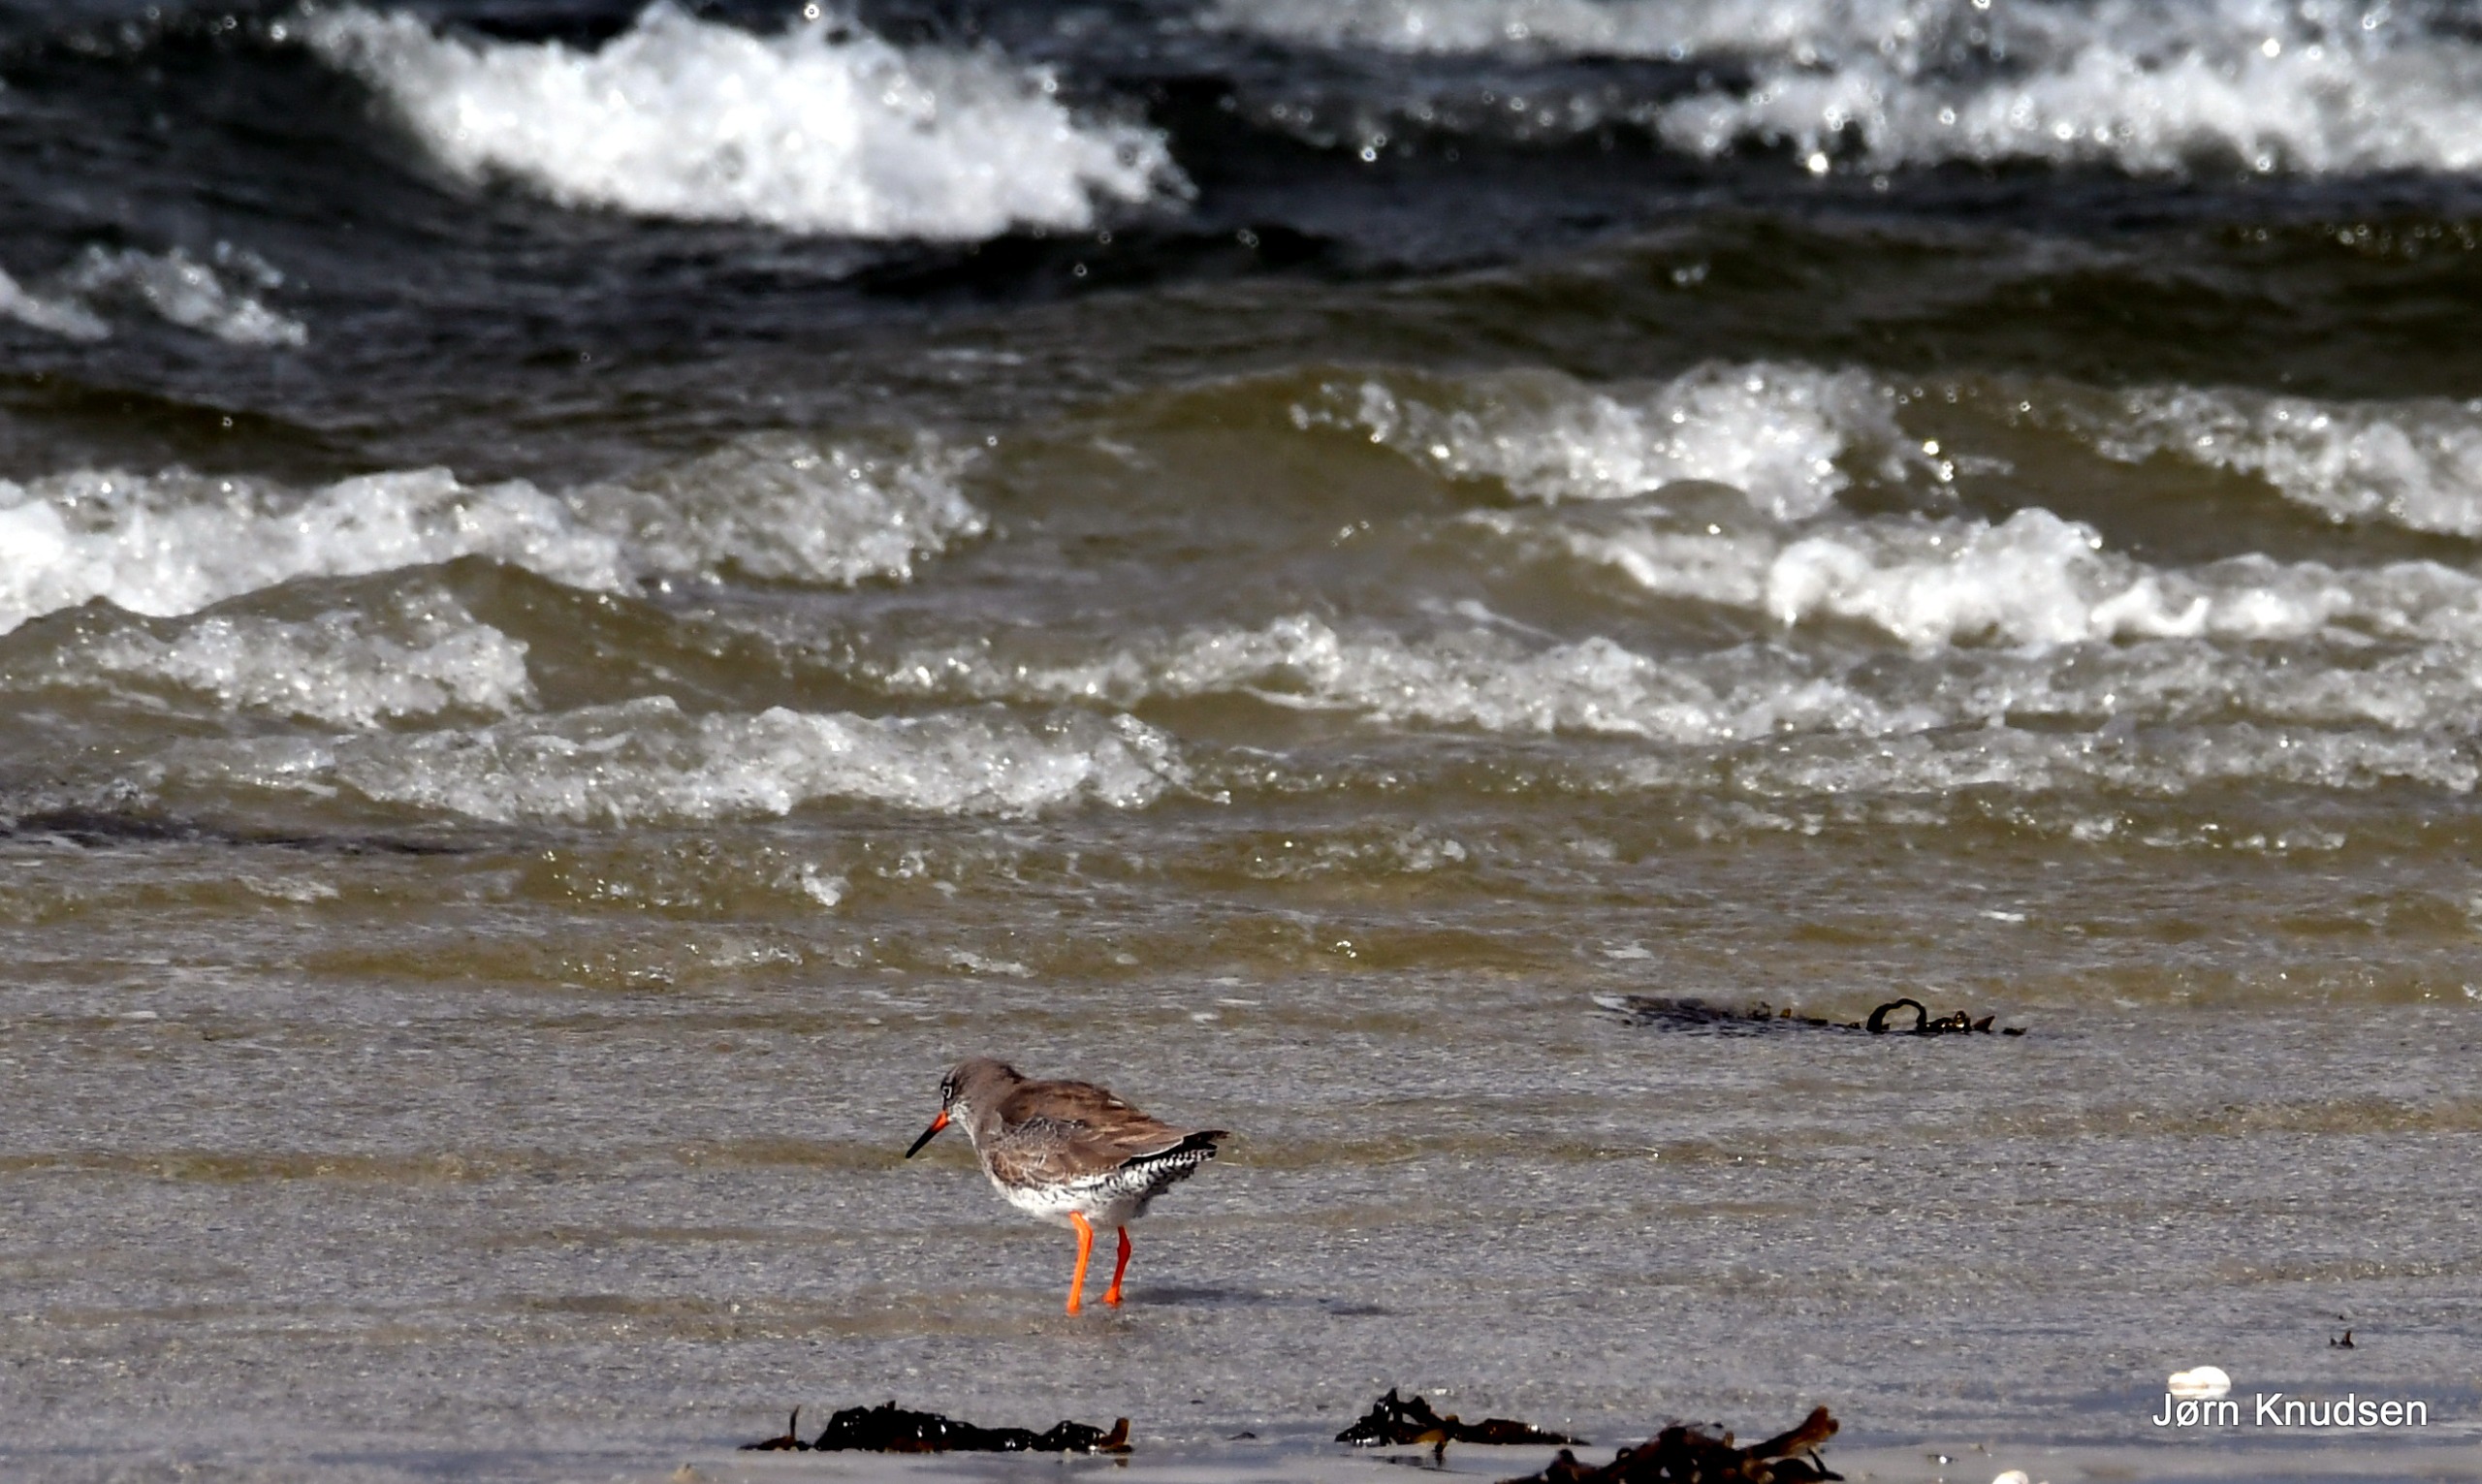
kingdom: Animalia
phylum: Chordata
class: Aves
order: Charadriiformes
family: Scolopacidae
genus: Tringa
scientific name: Tringa totanus
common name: Rødben
